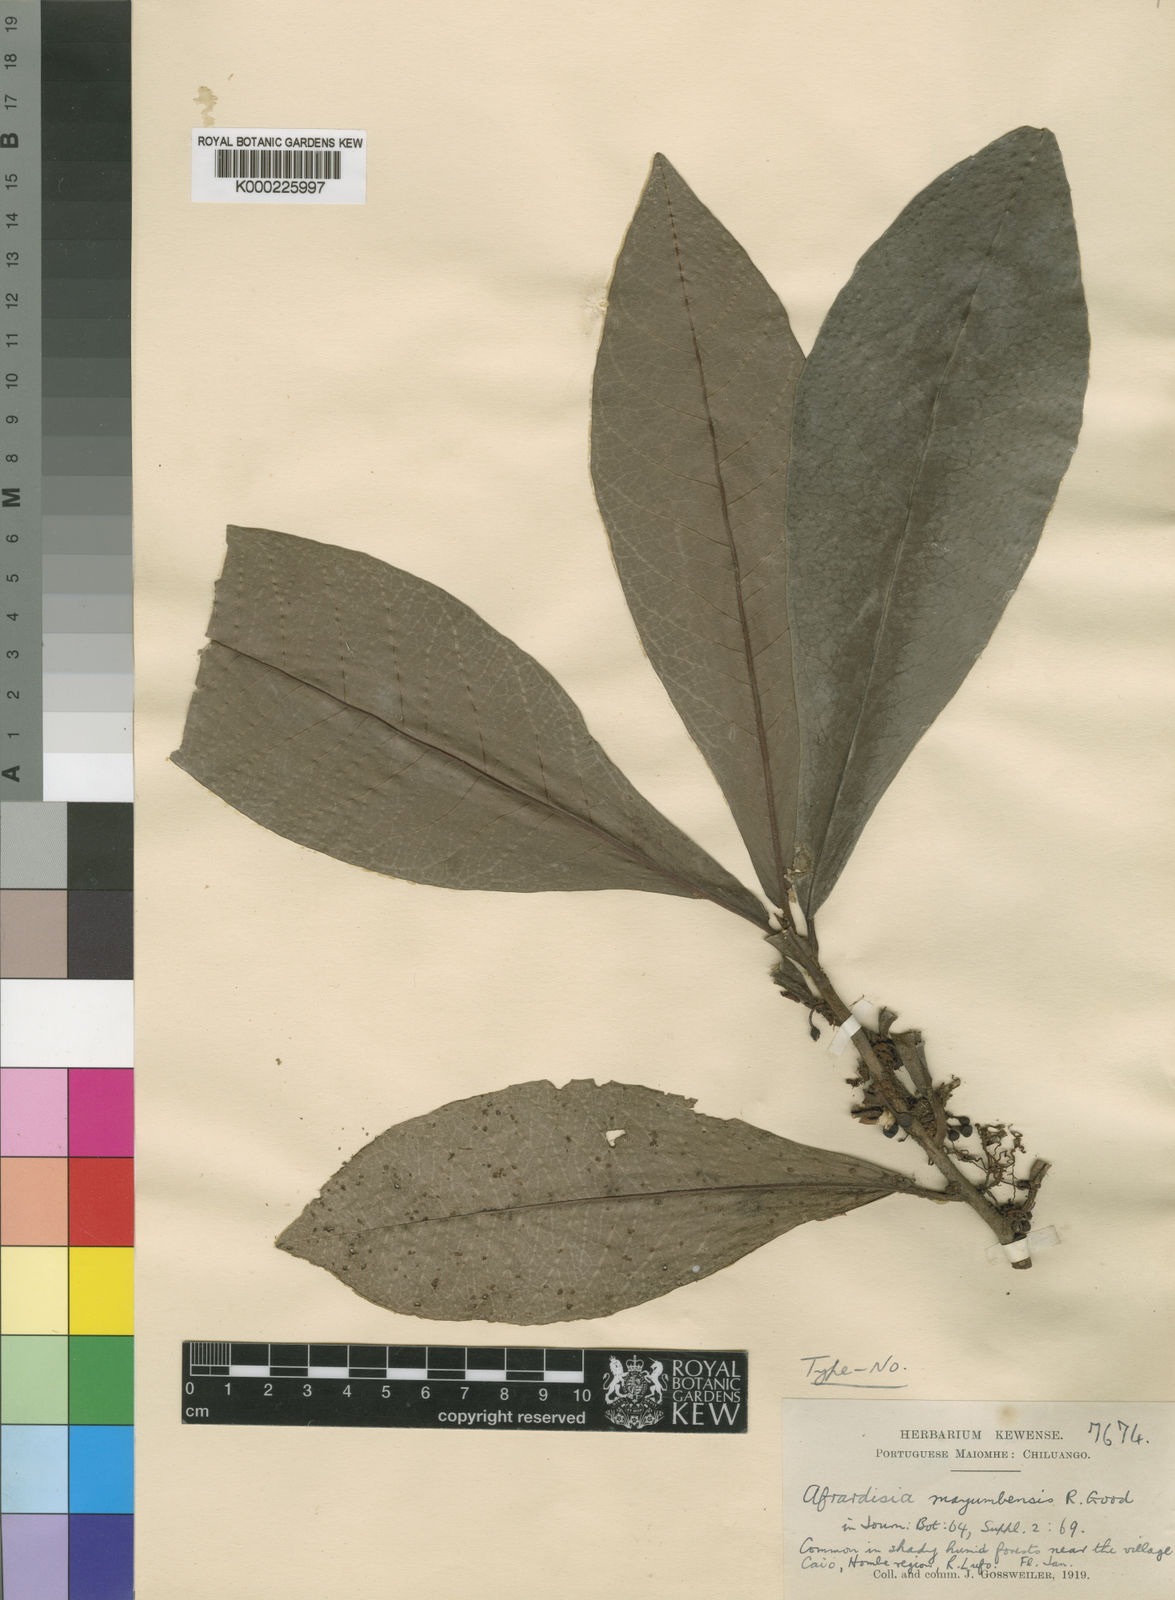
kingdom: Plantae
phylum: Tracheophyta
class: Magnoliopsida
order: Ericales
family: Primulaceae
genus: Ardisia
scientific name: Ardisia mayumbensis
